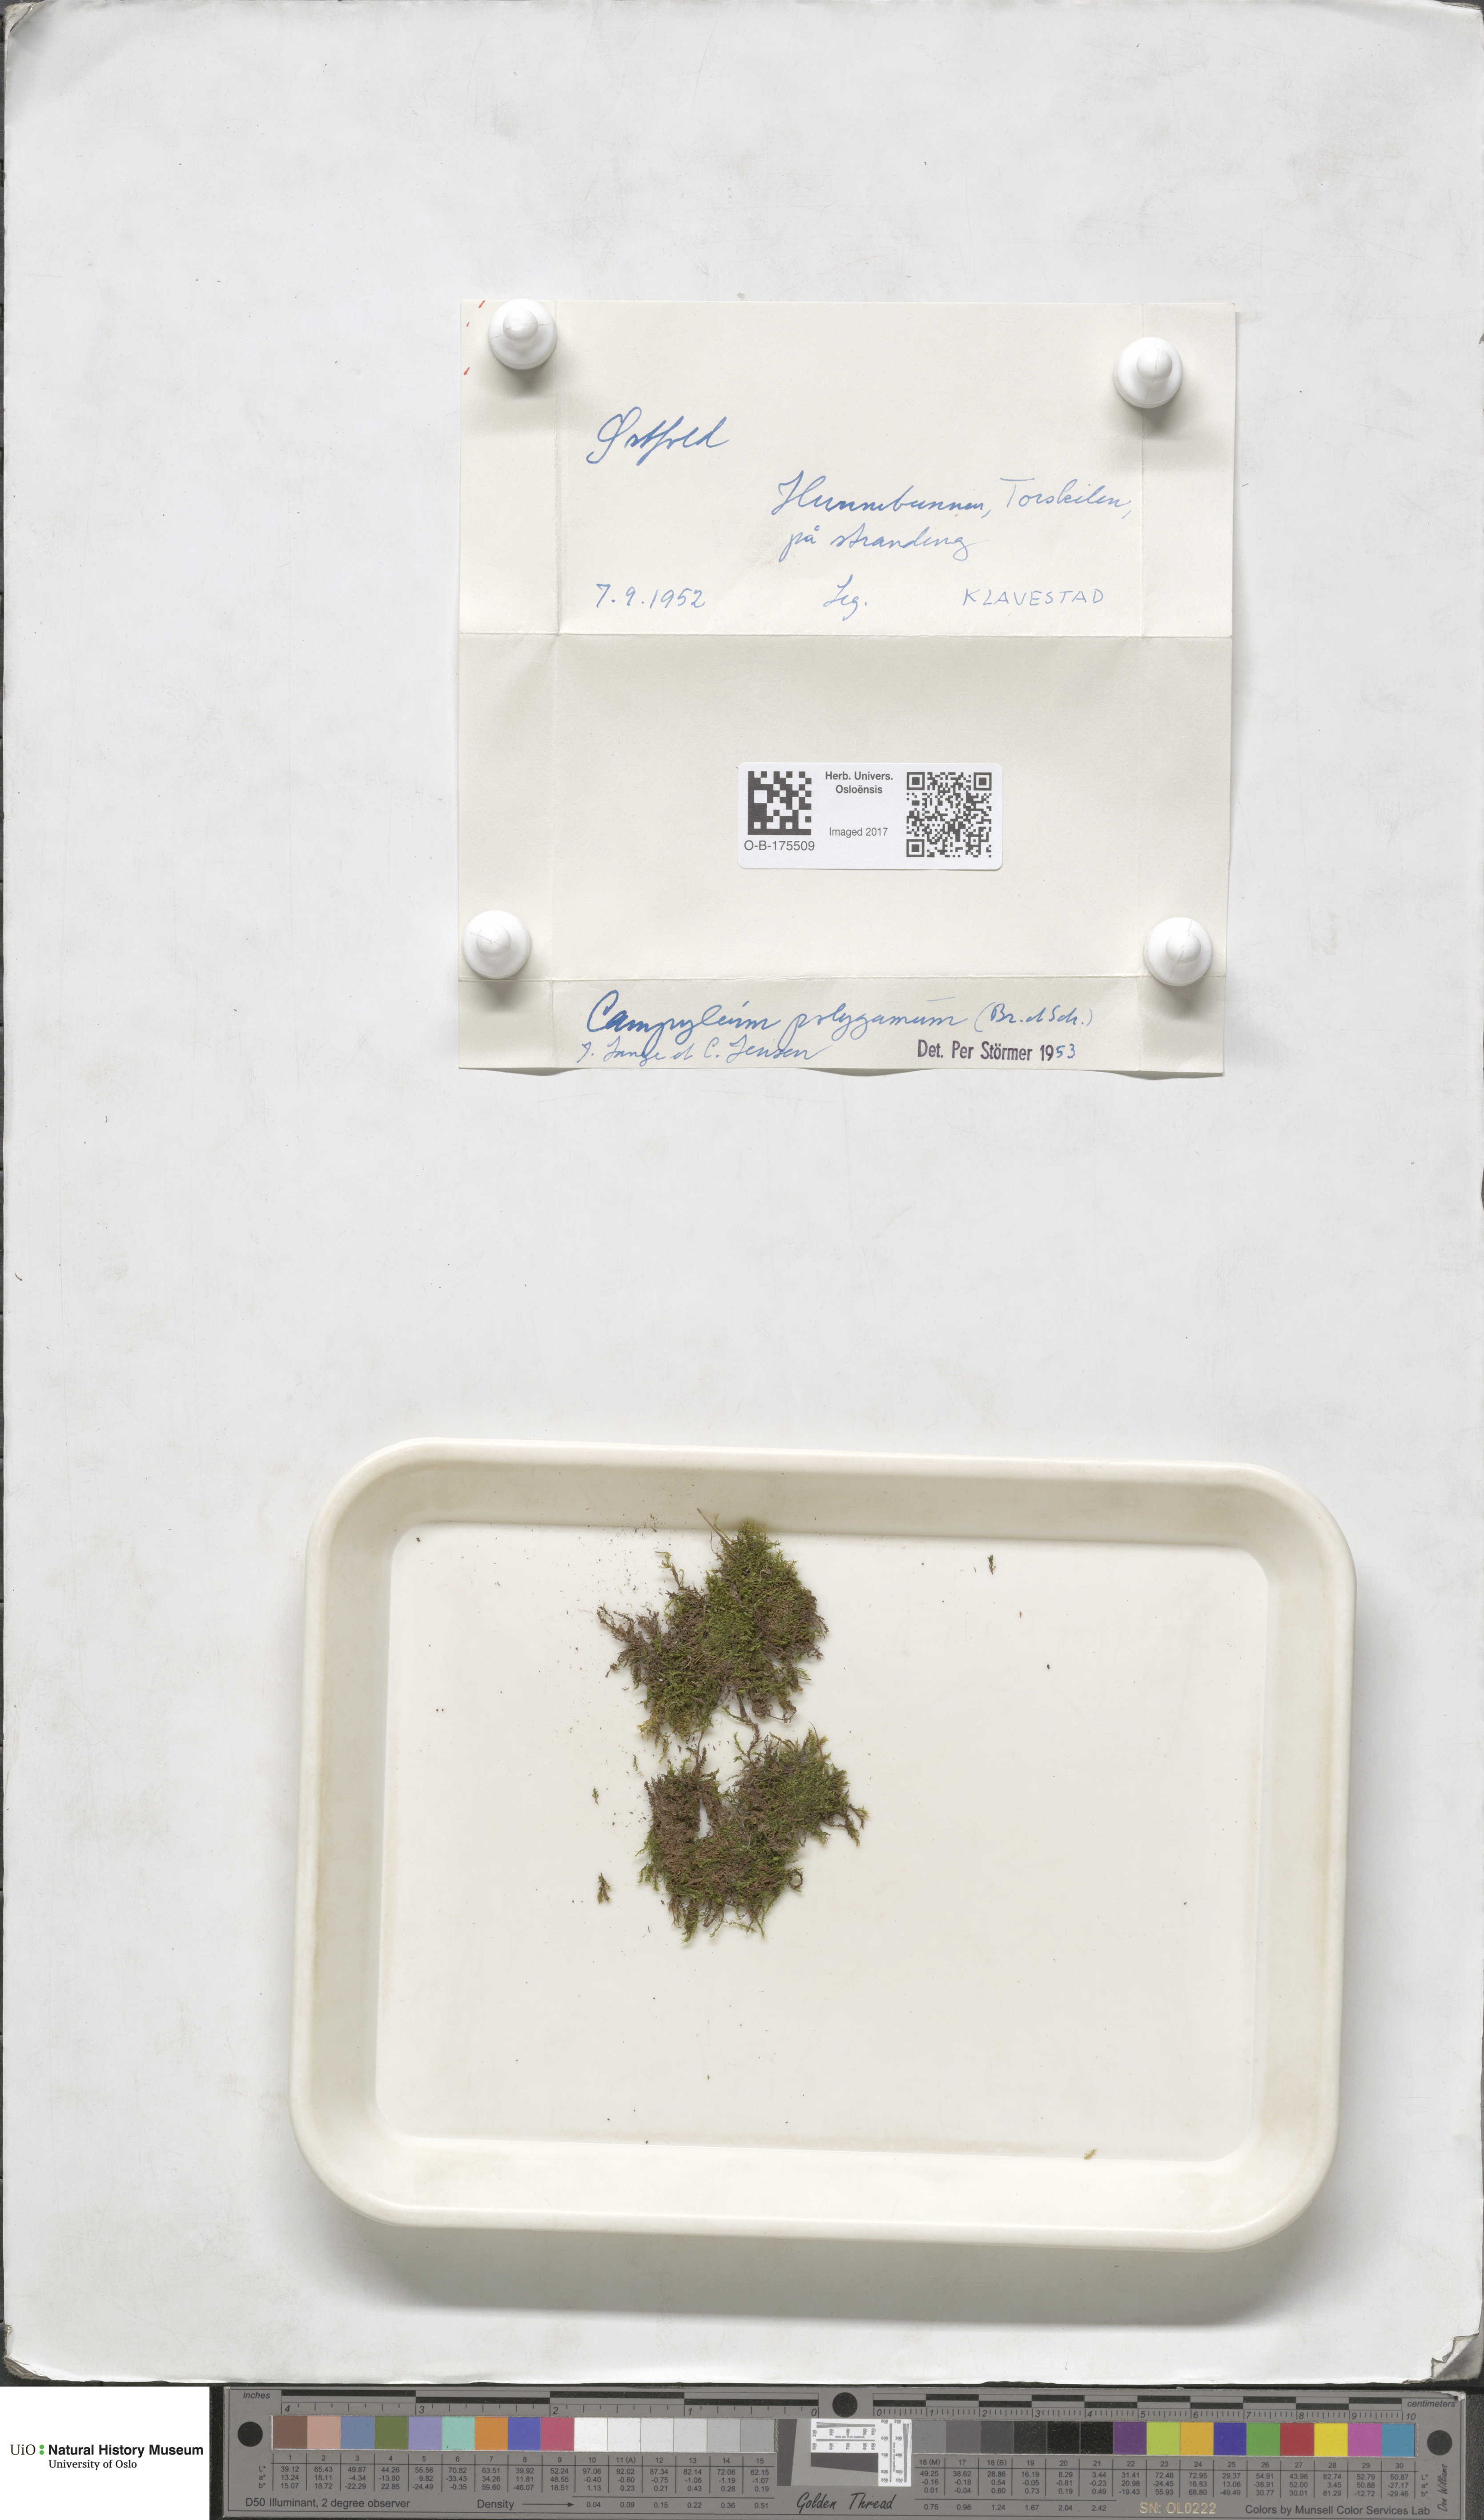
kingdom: Plantae
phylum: Bryophyta
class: Bryopsida
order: Hypnales
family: Amblystegiaceae
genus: Drepanocladus
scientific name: Drepanocladus polygamus
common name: Polygamous hook moss
